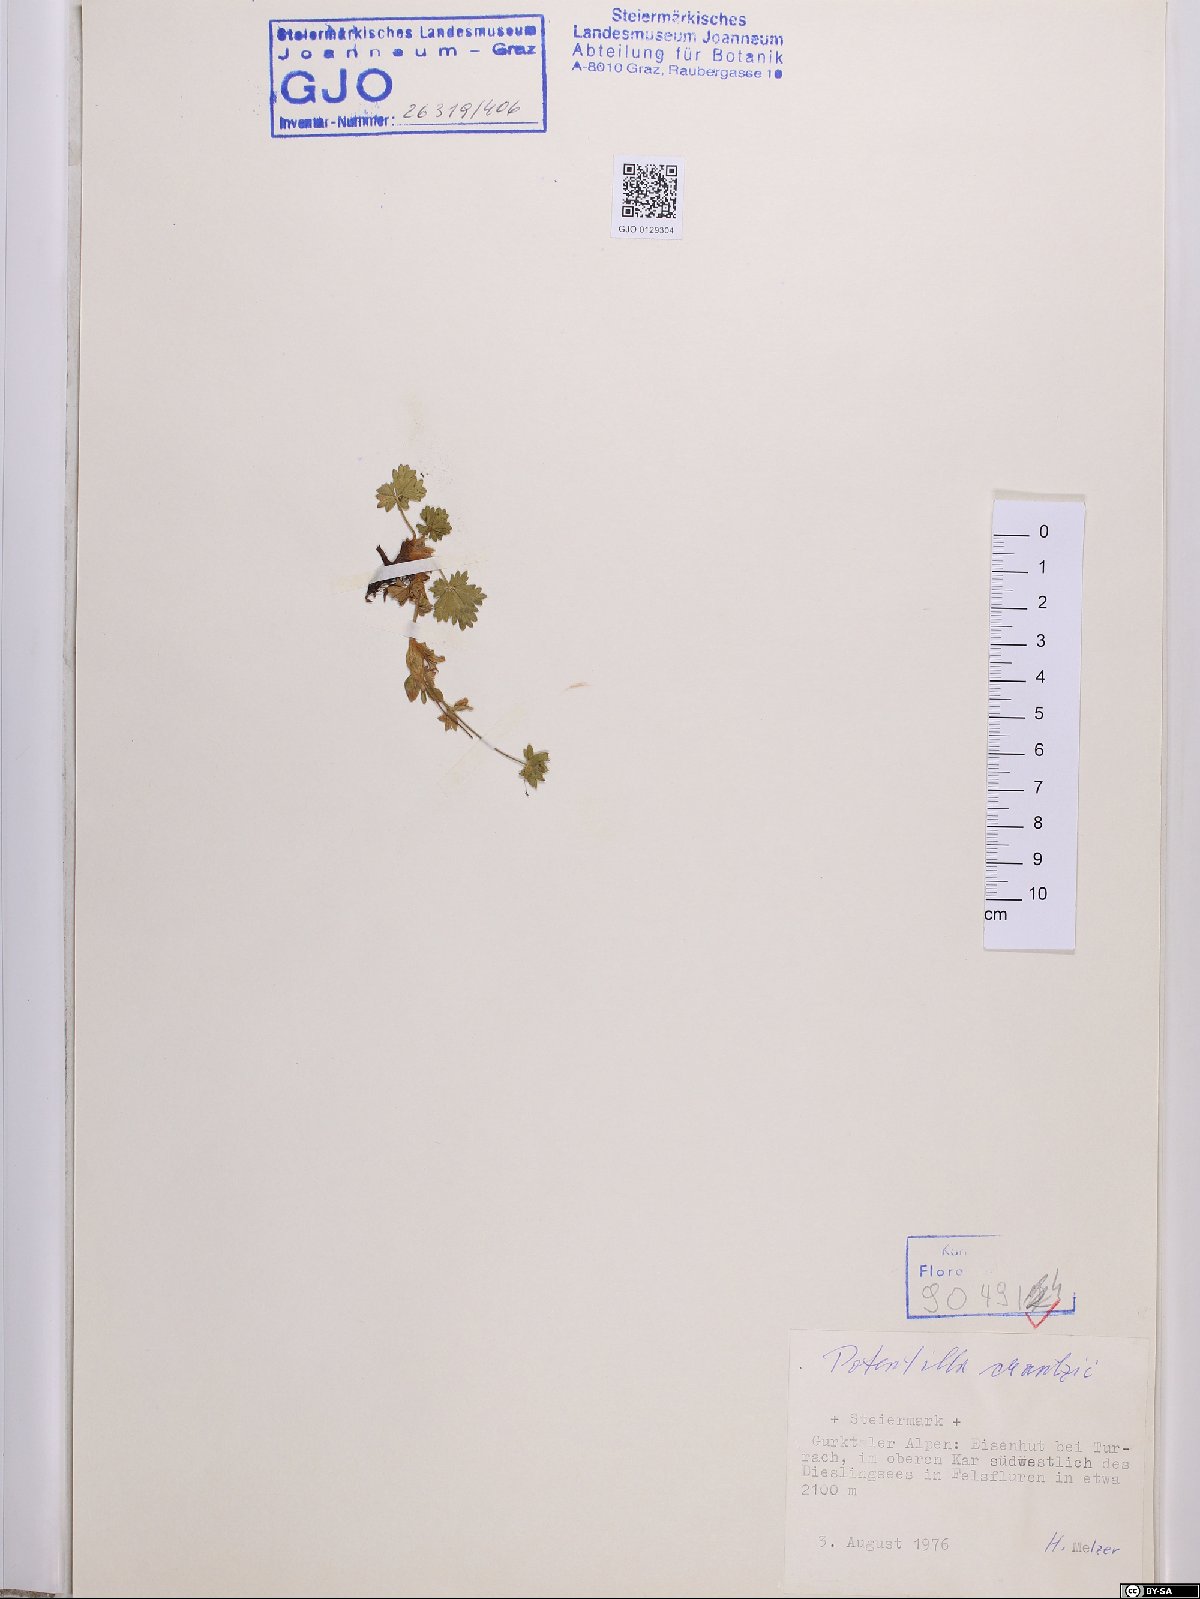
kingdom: Plantae
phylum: Tracheophyta
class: Magnoliopsida
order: Rosales
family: Rosaceae
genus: Potentilla
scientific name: Potentilla crantzii
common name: Alpine cinquefoil
